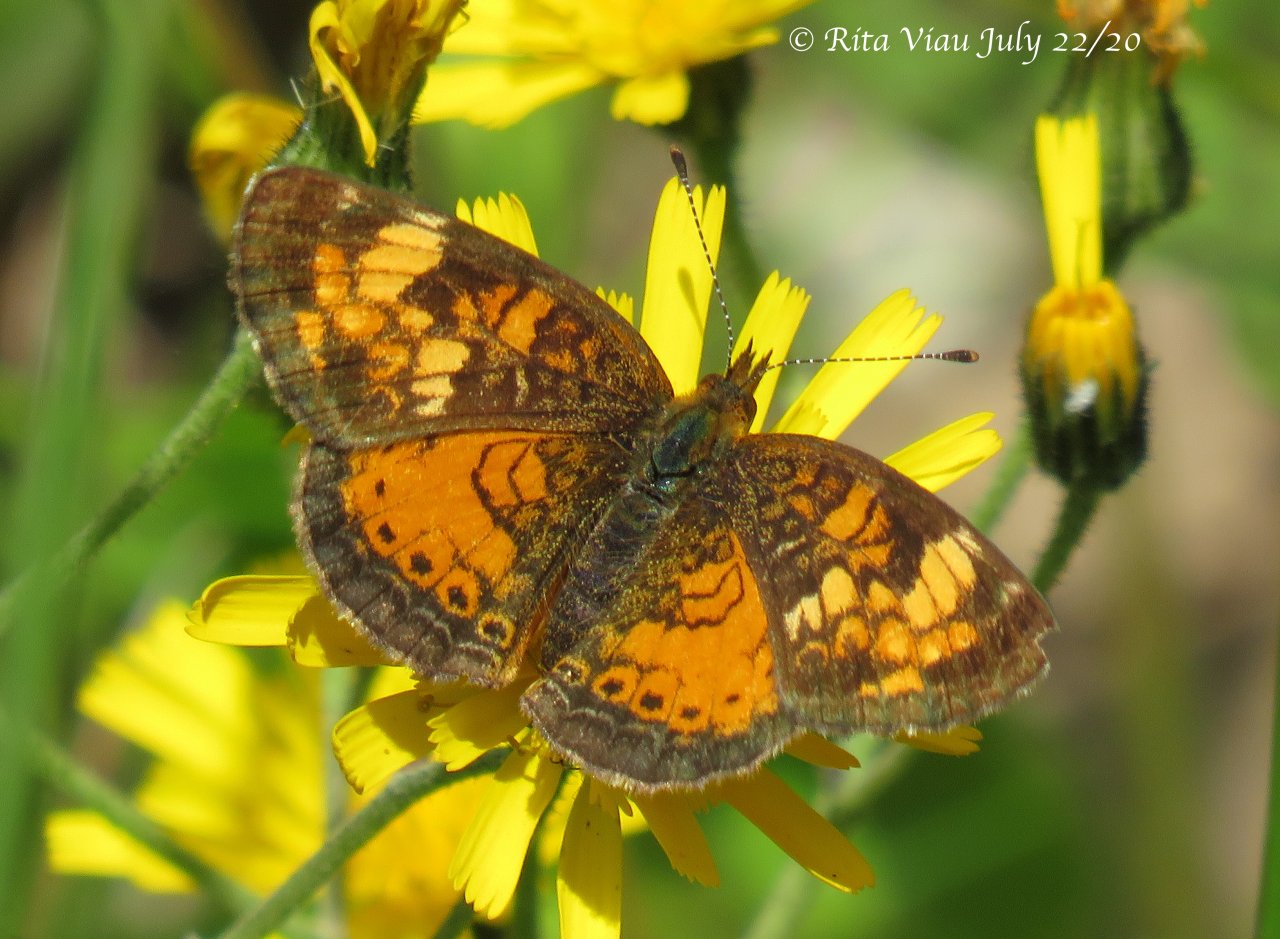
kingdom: Animalia
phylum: Arthropoda
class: Insecta
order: Lepidoptera
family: Nymphalidae
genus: Phyciodes
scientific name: Phyciodes tharos
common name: Northern Crescent
